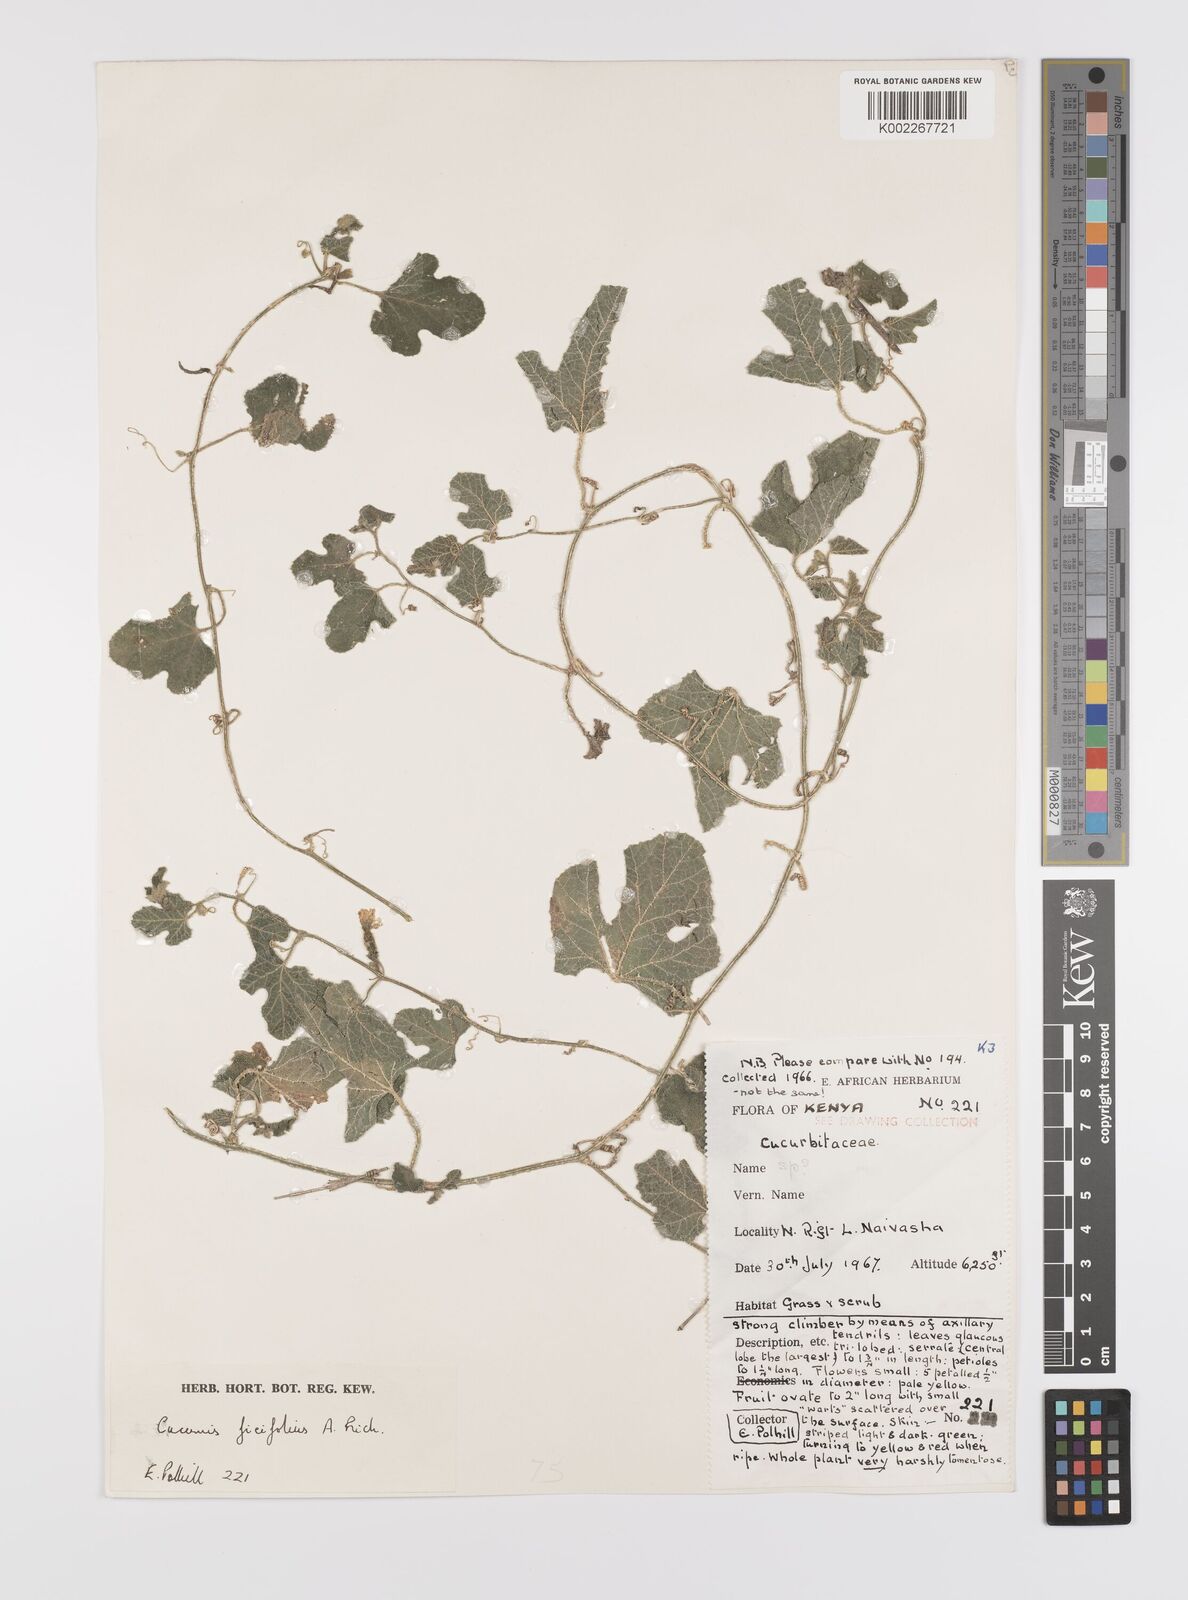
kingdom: Plantae
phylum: Tracheophyta
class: Magnoliopsida
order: Cucurbitales
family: Cucurbitaceae
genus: Cucumis
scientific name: Cucumis ficifolius
